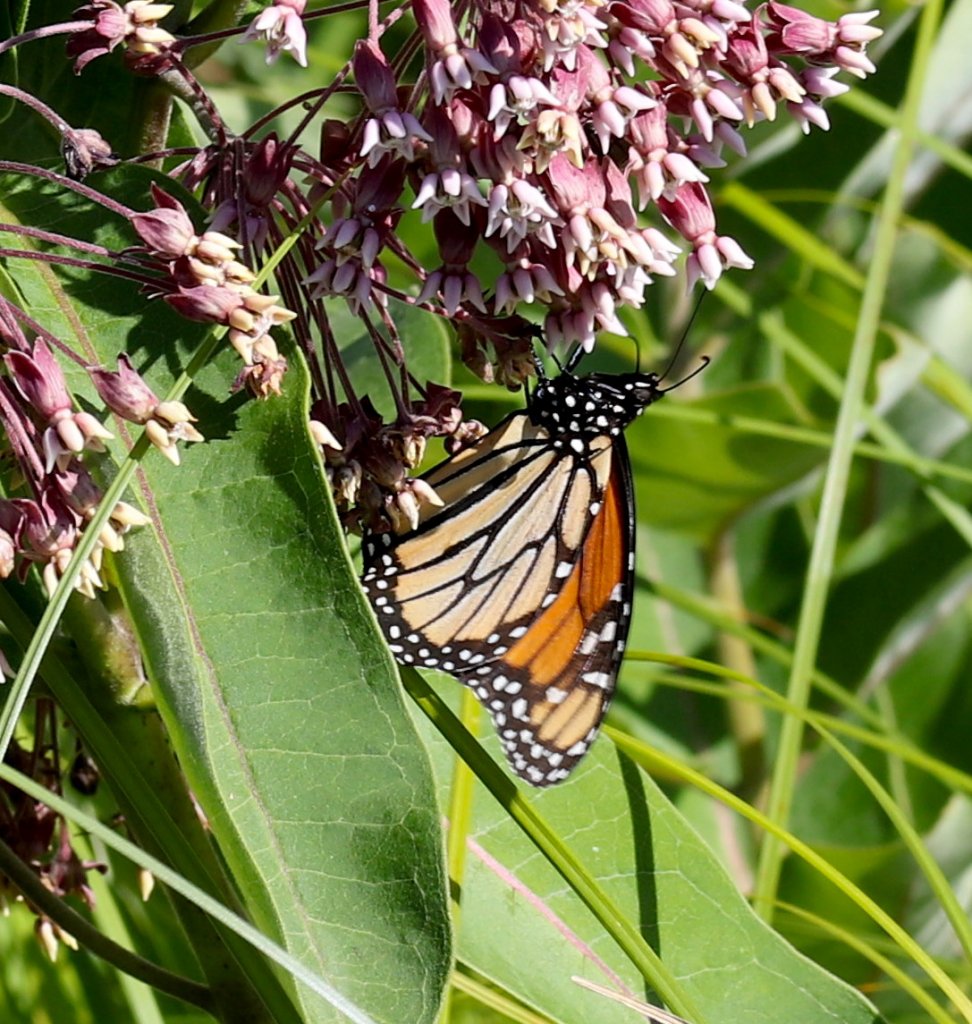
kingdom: Animalia
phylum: Arthropoda
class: Insecta
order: Lepidoptera
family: Nymphalidae
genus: Danaus
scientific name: Danaus plexippus
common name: Monarch
